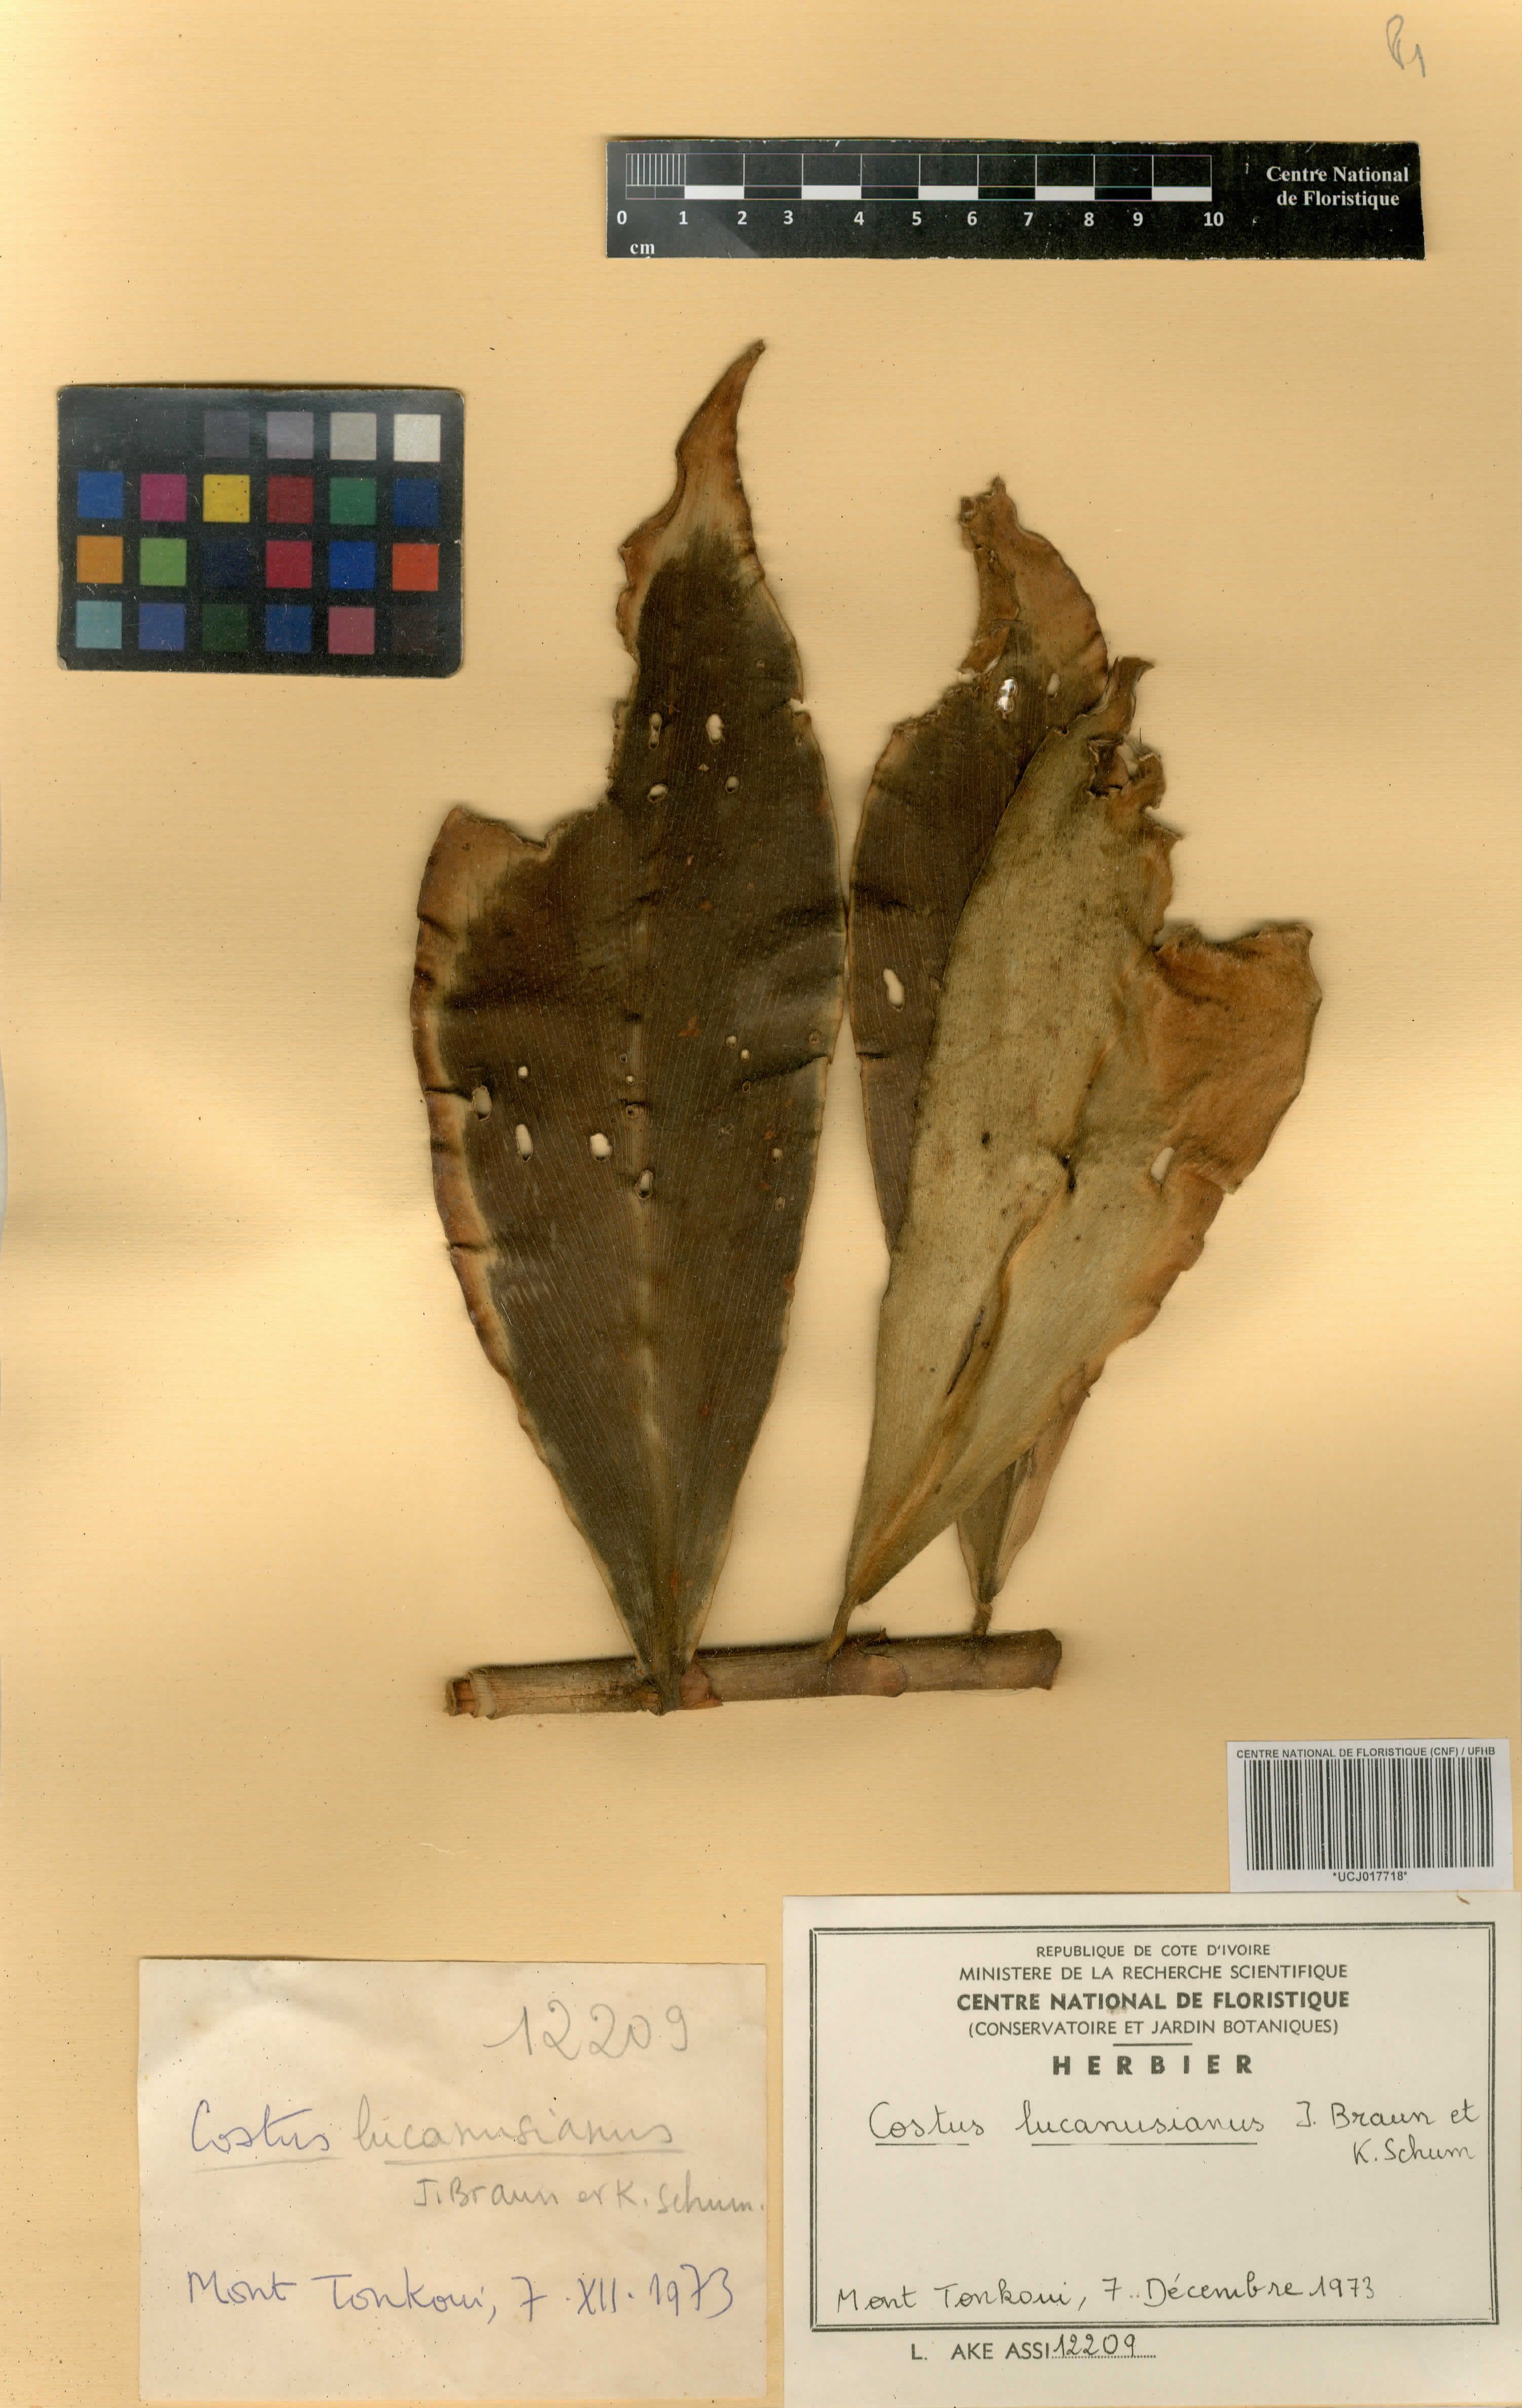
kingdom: Plantae
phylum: Tracheophyta
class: Liliopsida
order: Zingiberales
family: Costaceae
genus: Costus
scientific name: Costus lucanusianus
